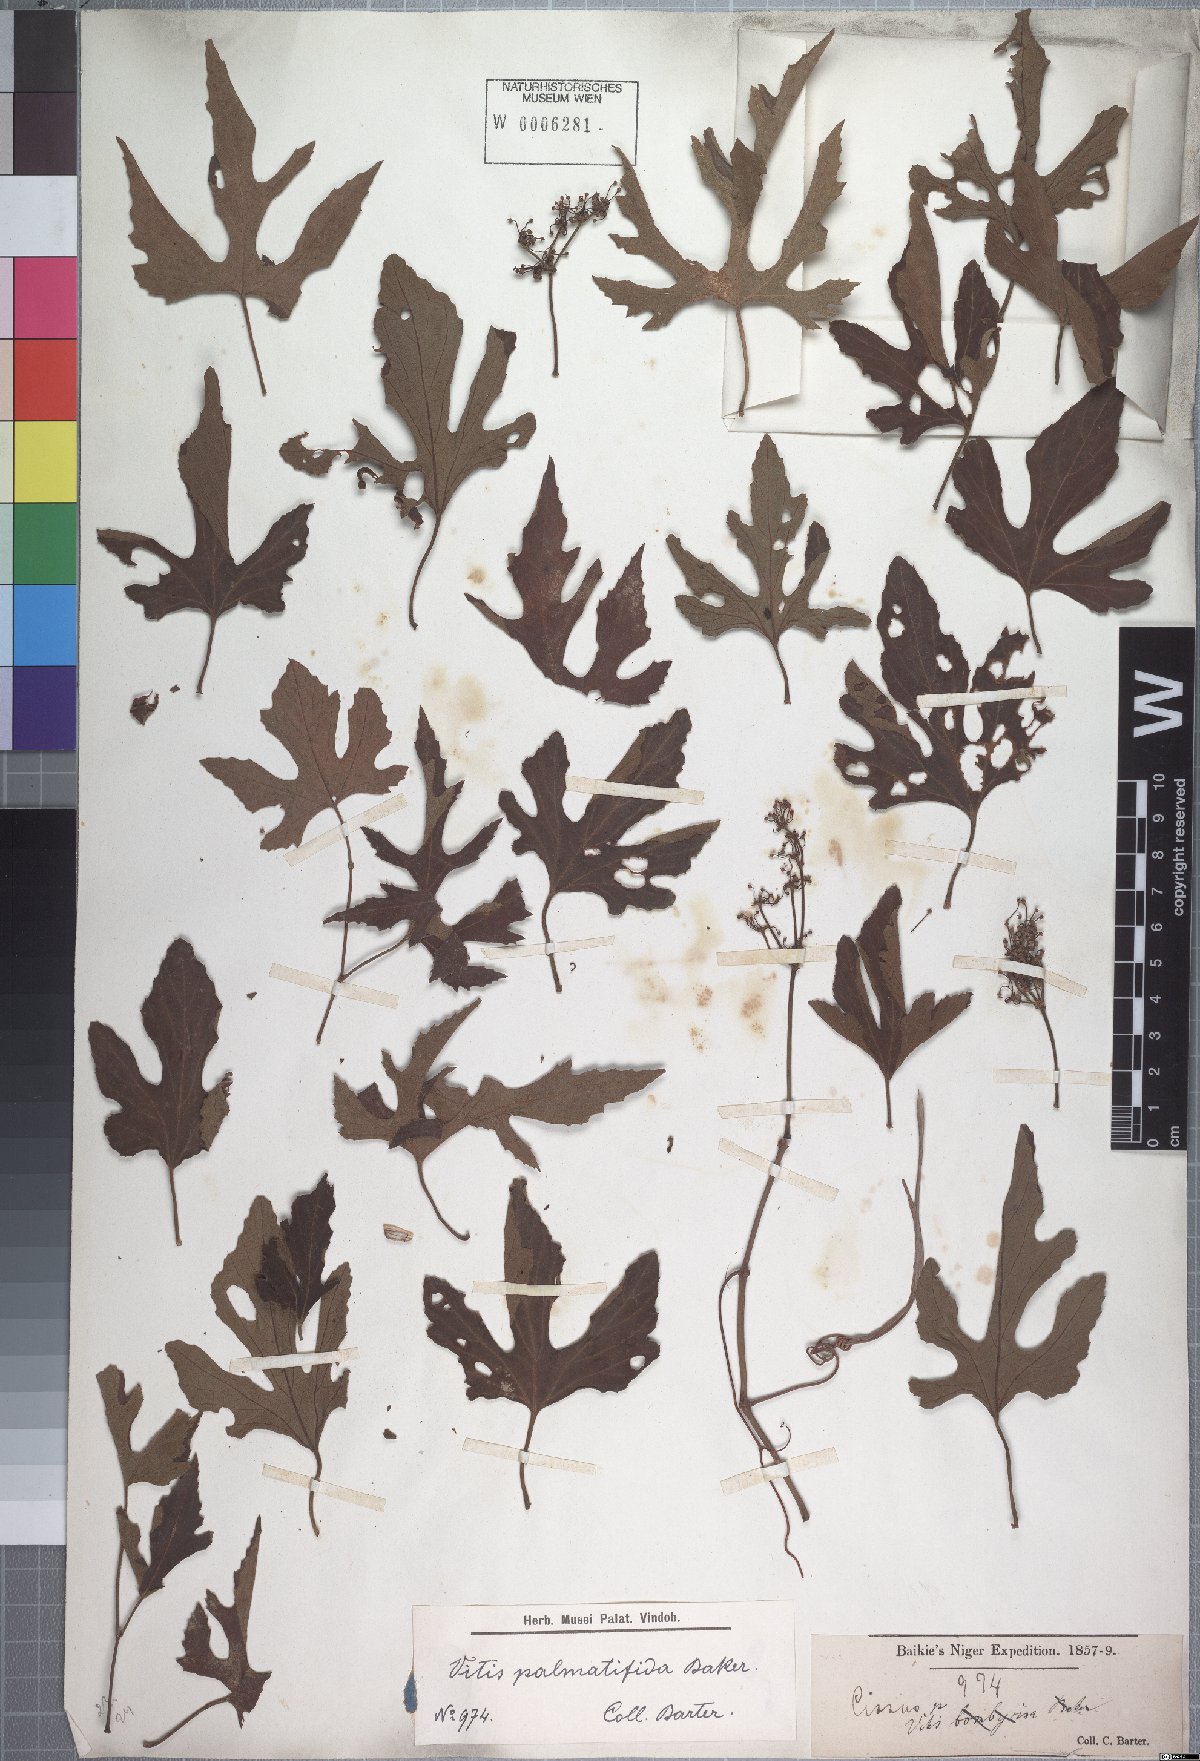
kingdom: Plantae
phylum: Tracheophyta
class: Magnoliopsida
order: Vitales
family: Vitaceae
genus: Cissus
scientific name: Cissus palmatifida
